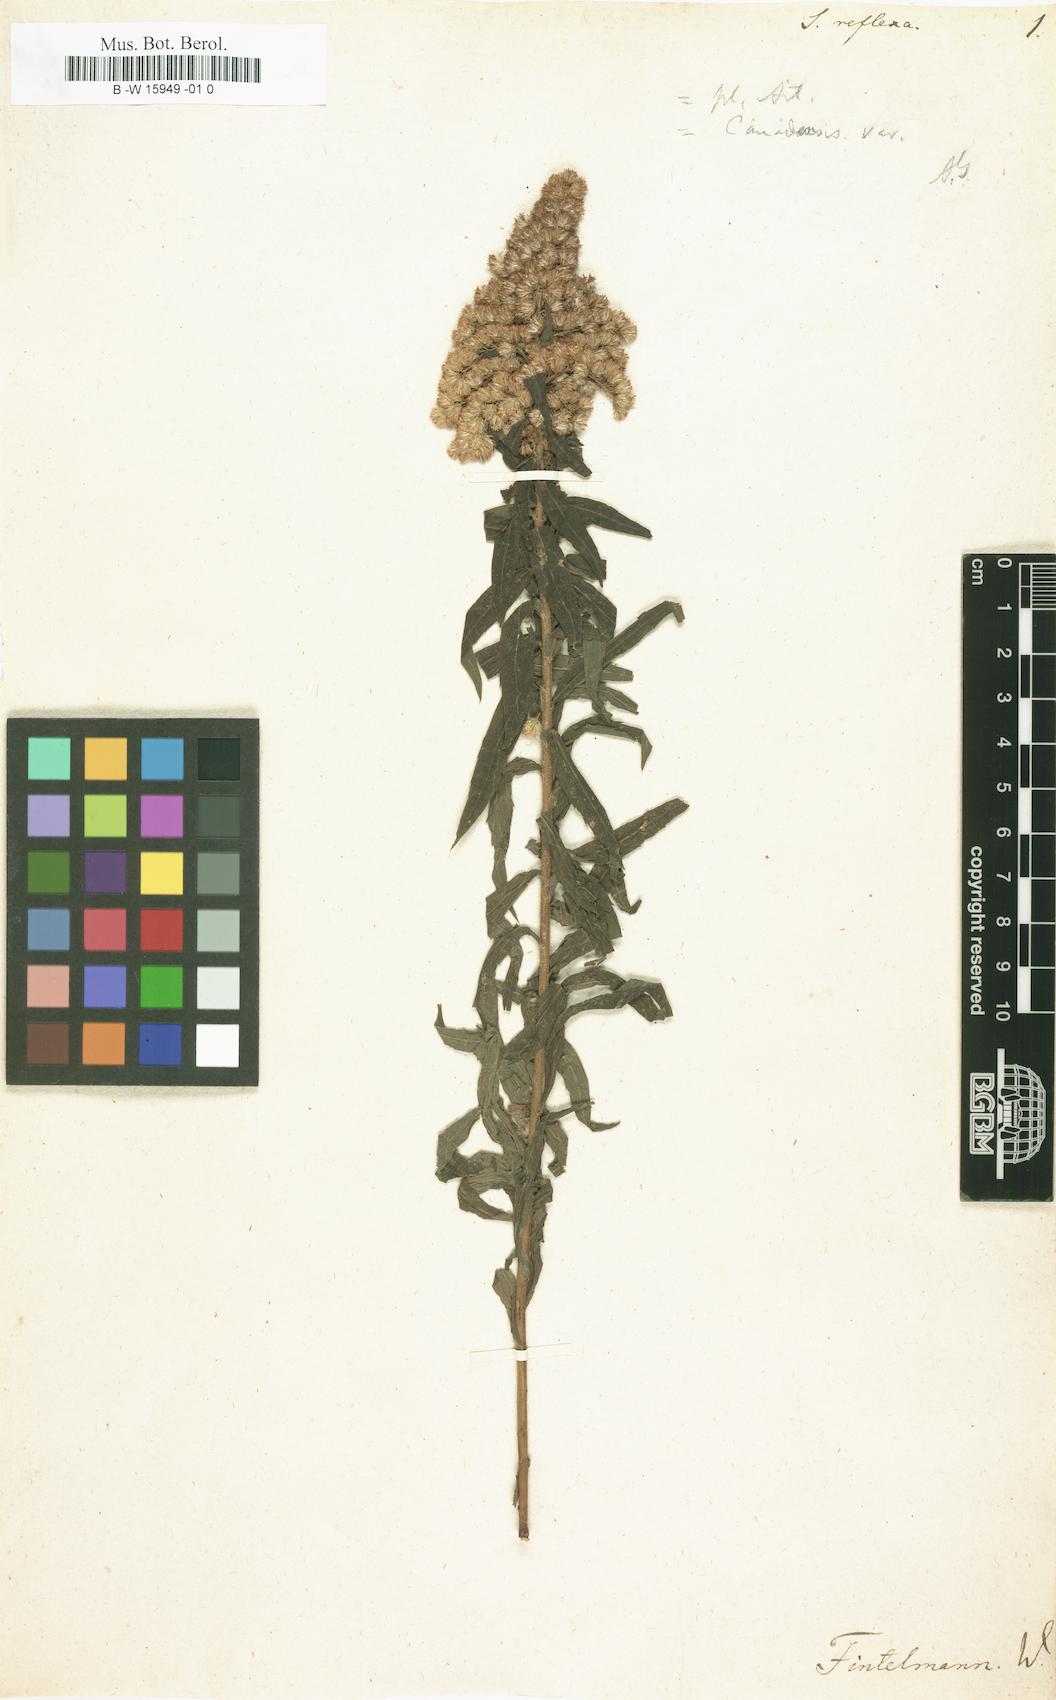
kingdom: Plantae
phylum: Tracheophyta
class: Magnoliopsida
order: Asterales
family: Asteraceae
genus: Solidago
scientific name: Solidago canadensis
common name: Canada goldenrod
